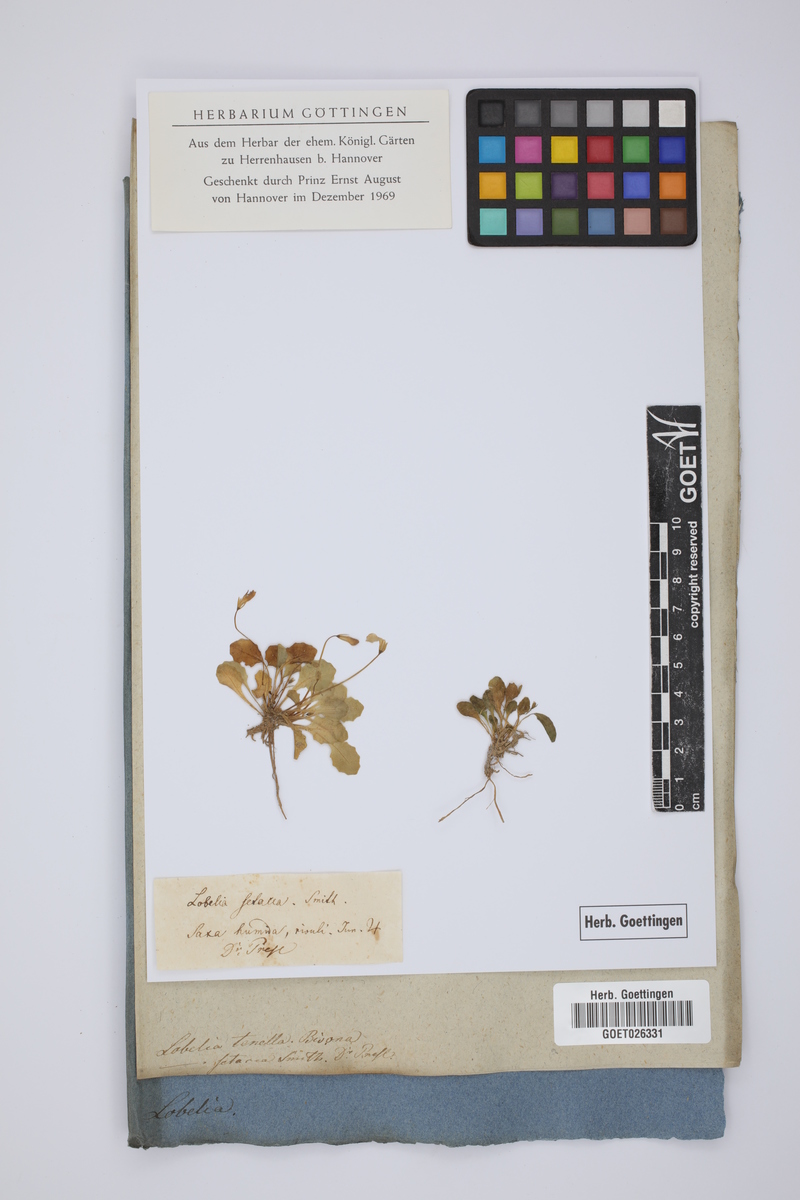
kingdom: Plantae
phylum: Tracheophyta
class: Magnoliopsida
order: Asterales
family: Campanulaceae
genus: Solenopsis
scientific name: Solenopsis bivonae
